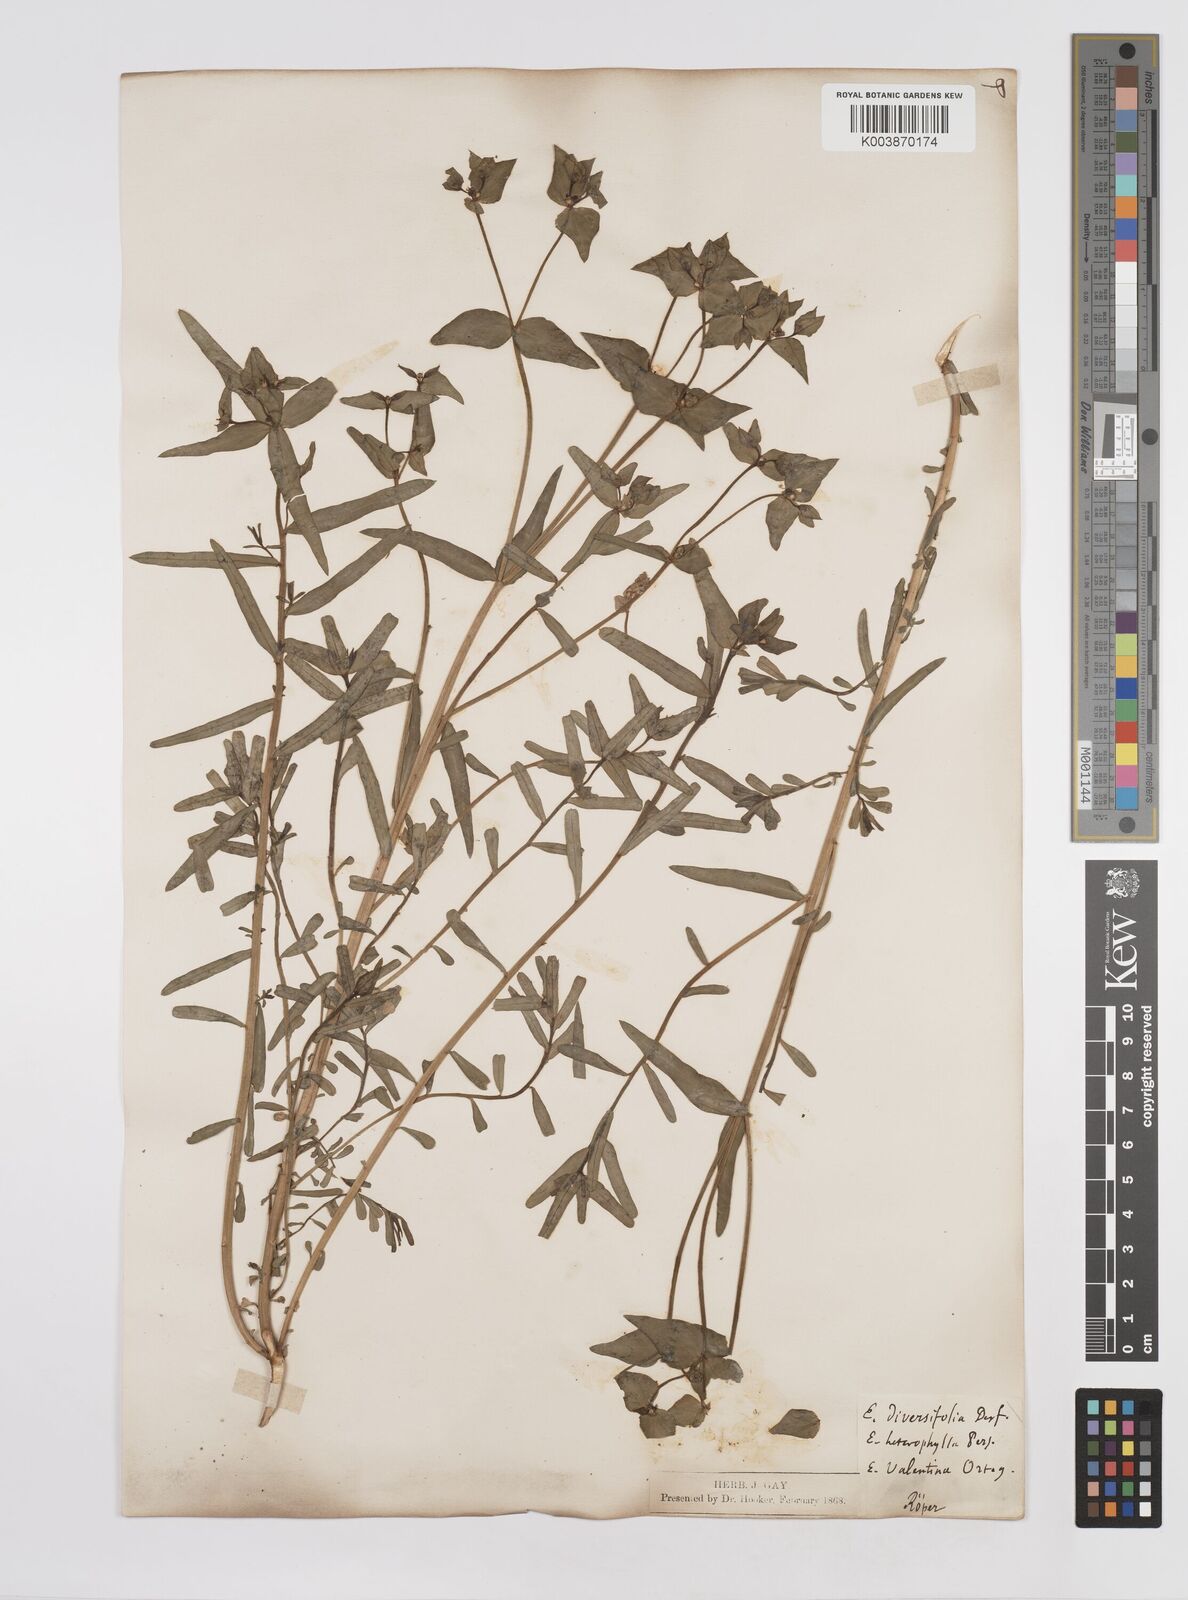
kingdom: Plantae
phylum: Tracheophyta
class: Magnoliopsida
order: Malpighiales
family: Euphorbiaceae
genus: Euphorbia
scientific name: Euphorbia terracina
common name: Geraldton carnation weed
